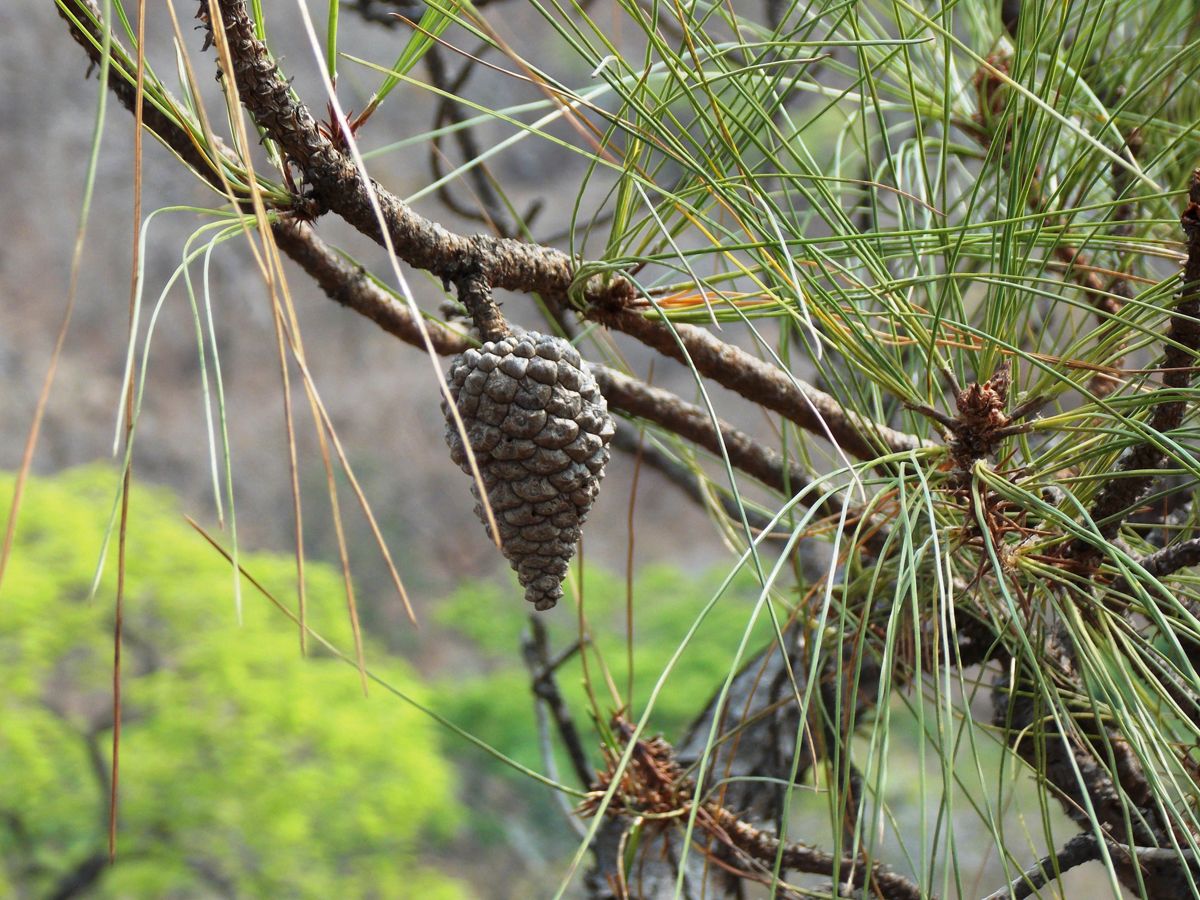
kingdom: Plantae
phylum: Tracheophyta
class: Pinopsida
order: Pinales
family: Pinaceae
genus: Pinus
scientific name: Pinus oocarpa
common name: Egg-cone pine
